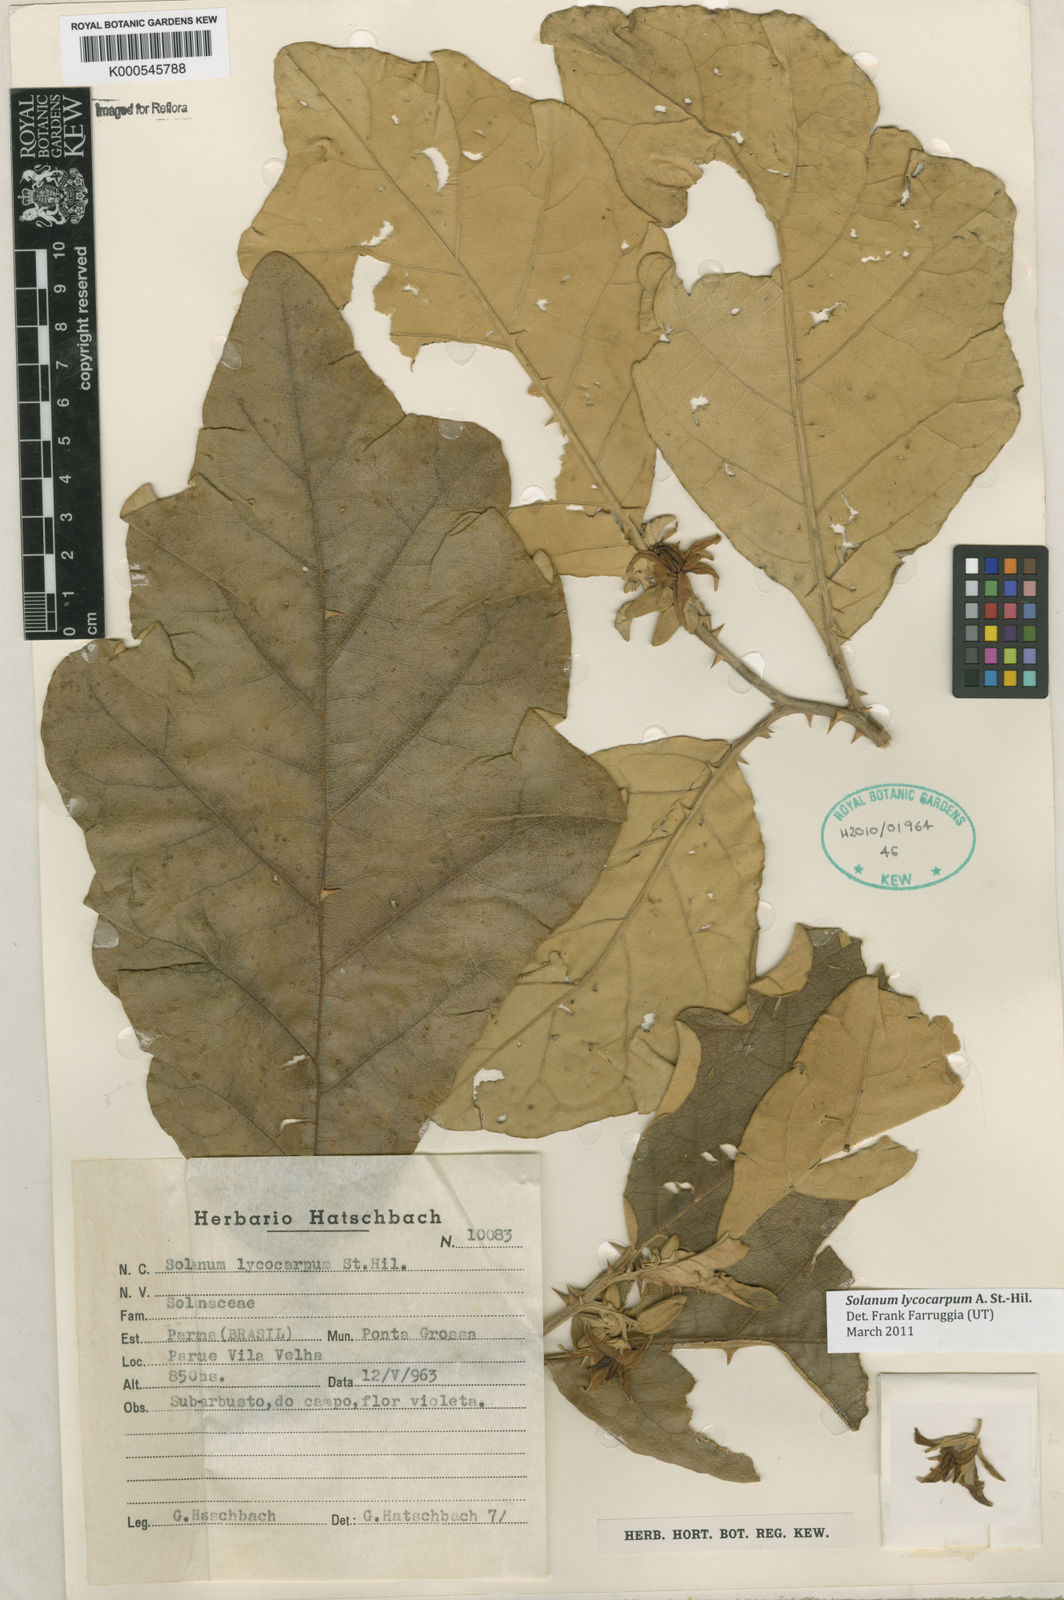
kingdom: Plantae
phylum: Tracheophyta
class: Magnoliopsida
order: Solanales
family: Solanaceae
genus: Solanum
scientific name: Solanum lycocarpum
